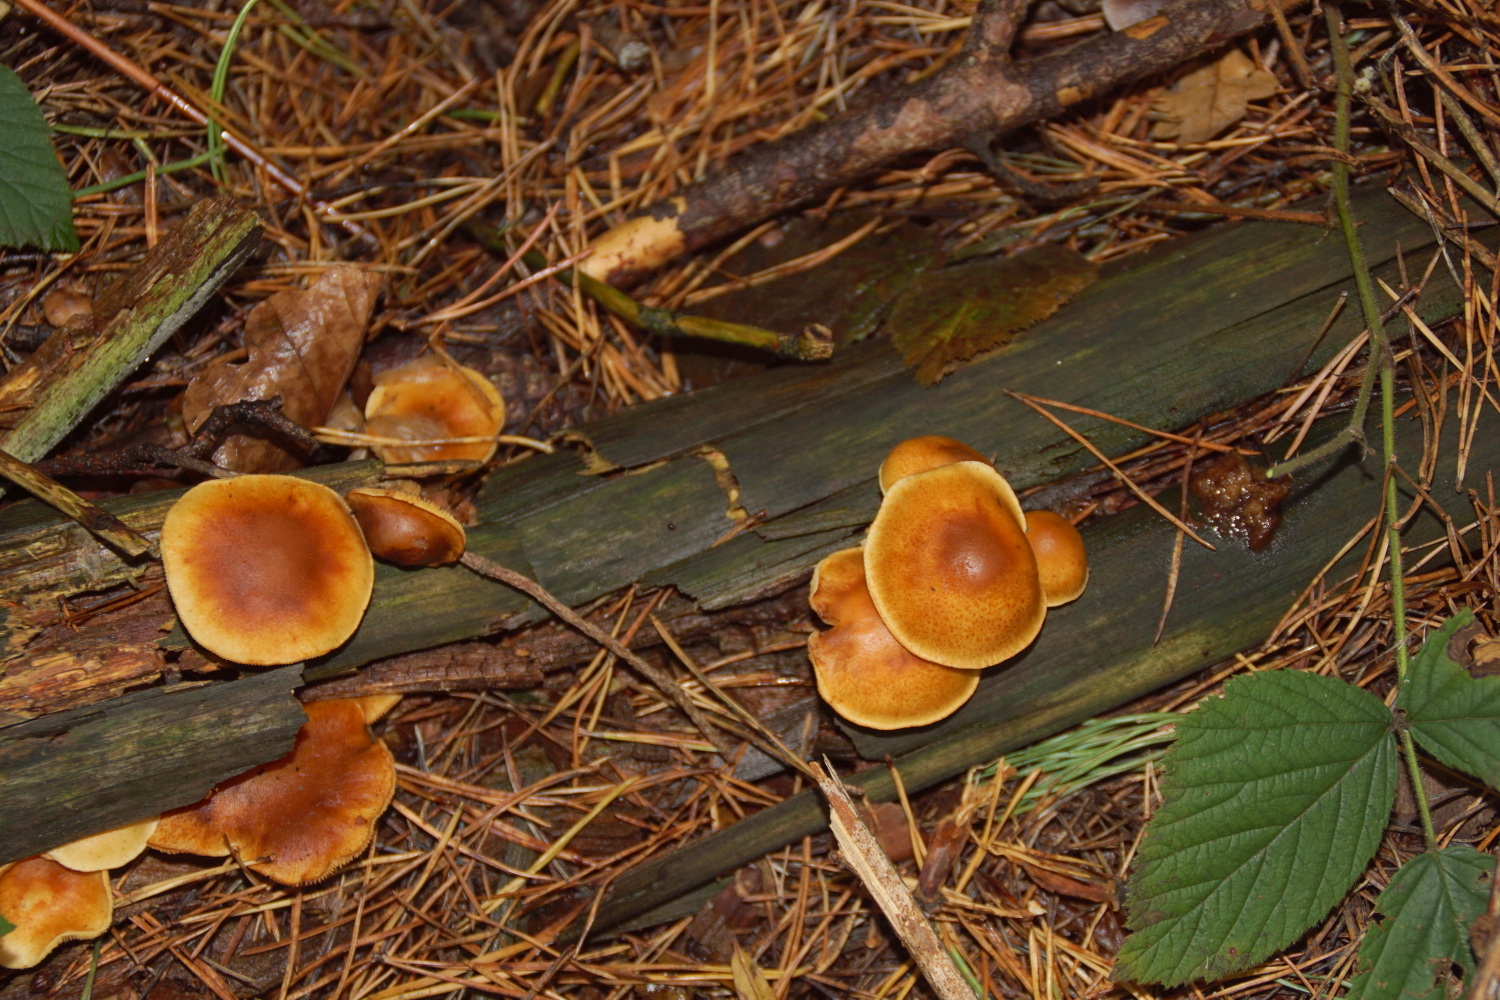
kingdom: Fungi
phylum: Basidiomycota
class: Agaricomycetes
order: Agaricales
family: Hymenogastraceae
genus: Gymnopilus
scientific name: Gymnopilus penetrans
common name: plettet flammehat
